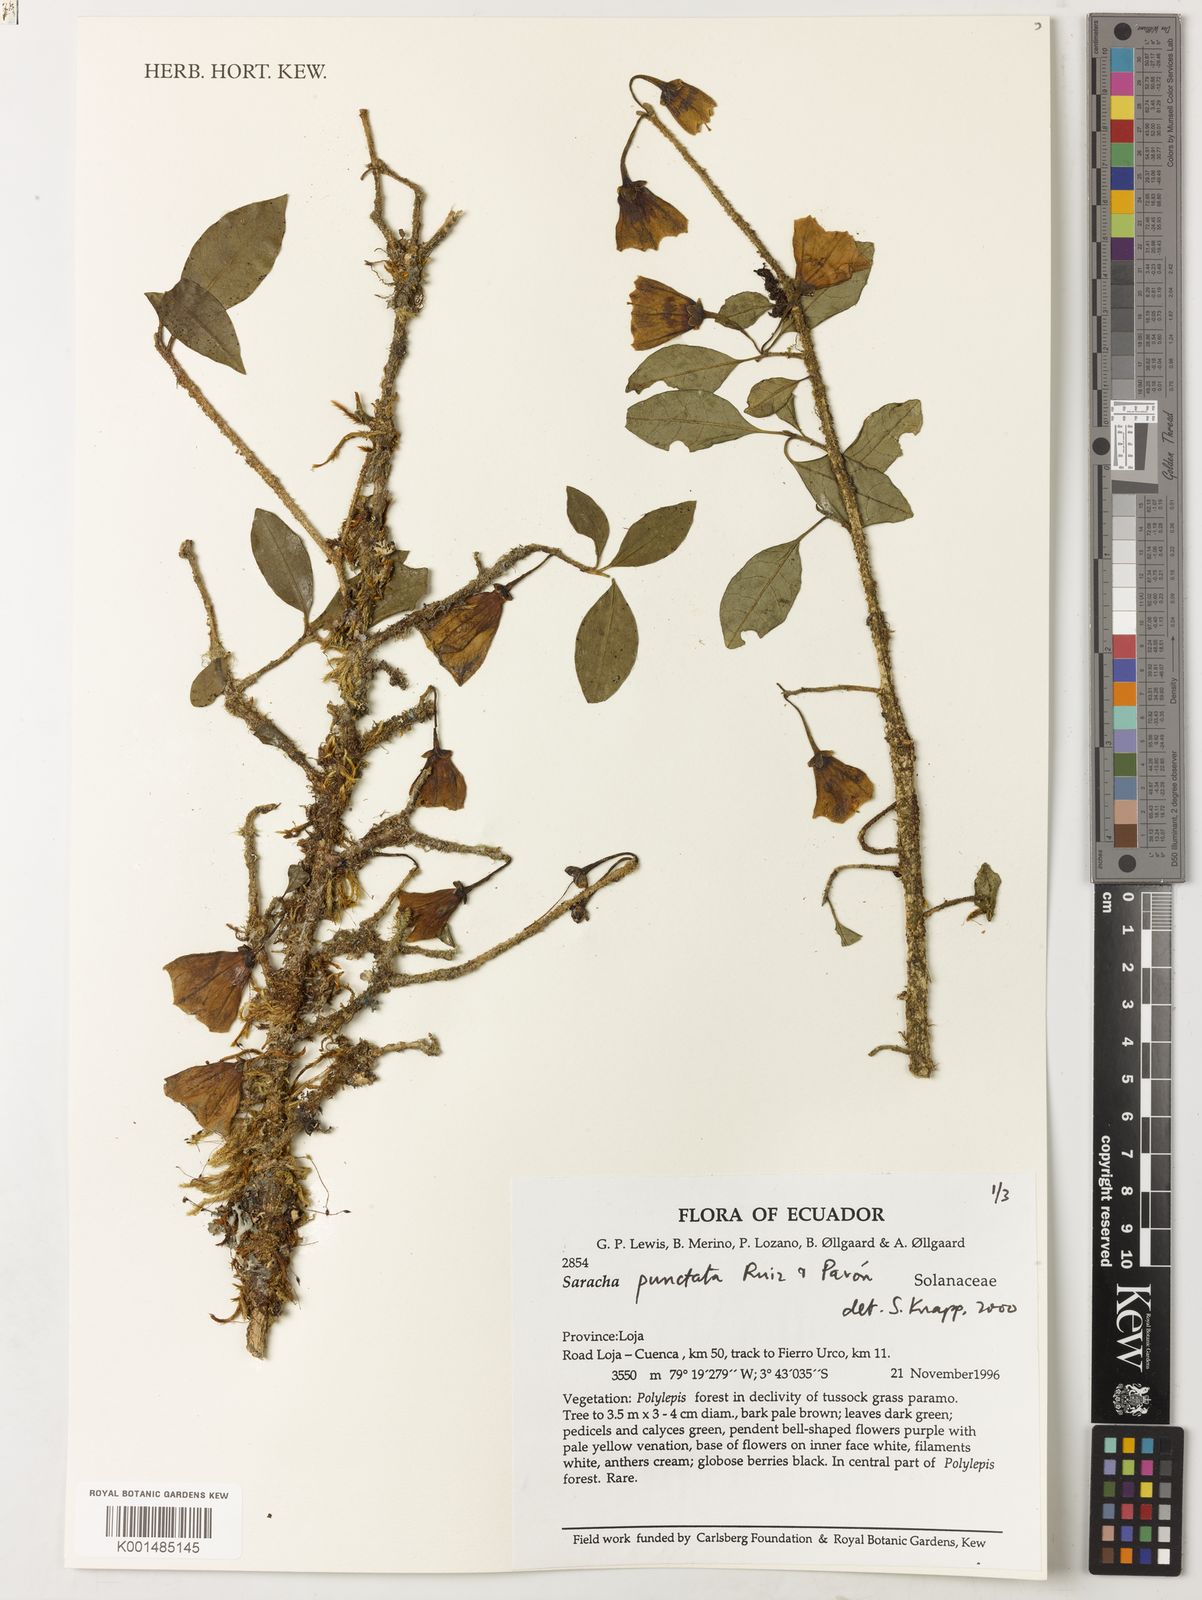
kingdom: Plantae
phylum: Tracheophyta
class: Magnoliopsida
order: Solanales
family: Solanaceae
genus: Saracha
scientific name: Saracha punctata
